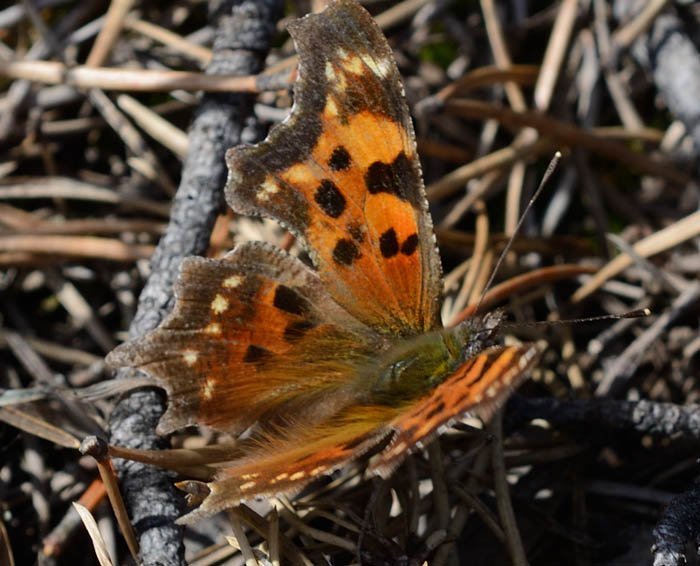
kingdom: Animalia
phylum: Arthropoda
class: Insecta
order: Lepidoptera
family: Nymphalidae
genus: Polygonia
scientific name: Polygonia faunus
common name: Green Comma
